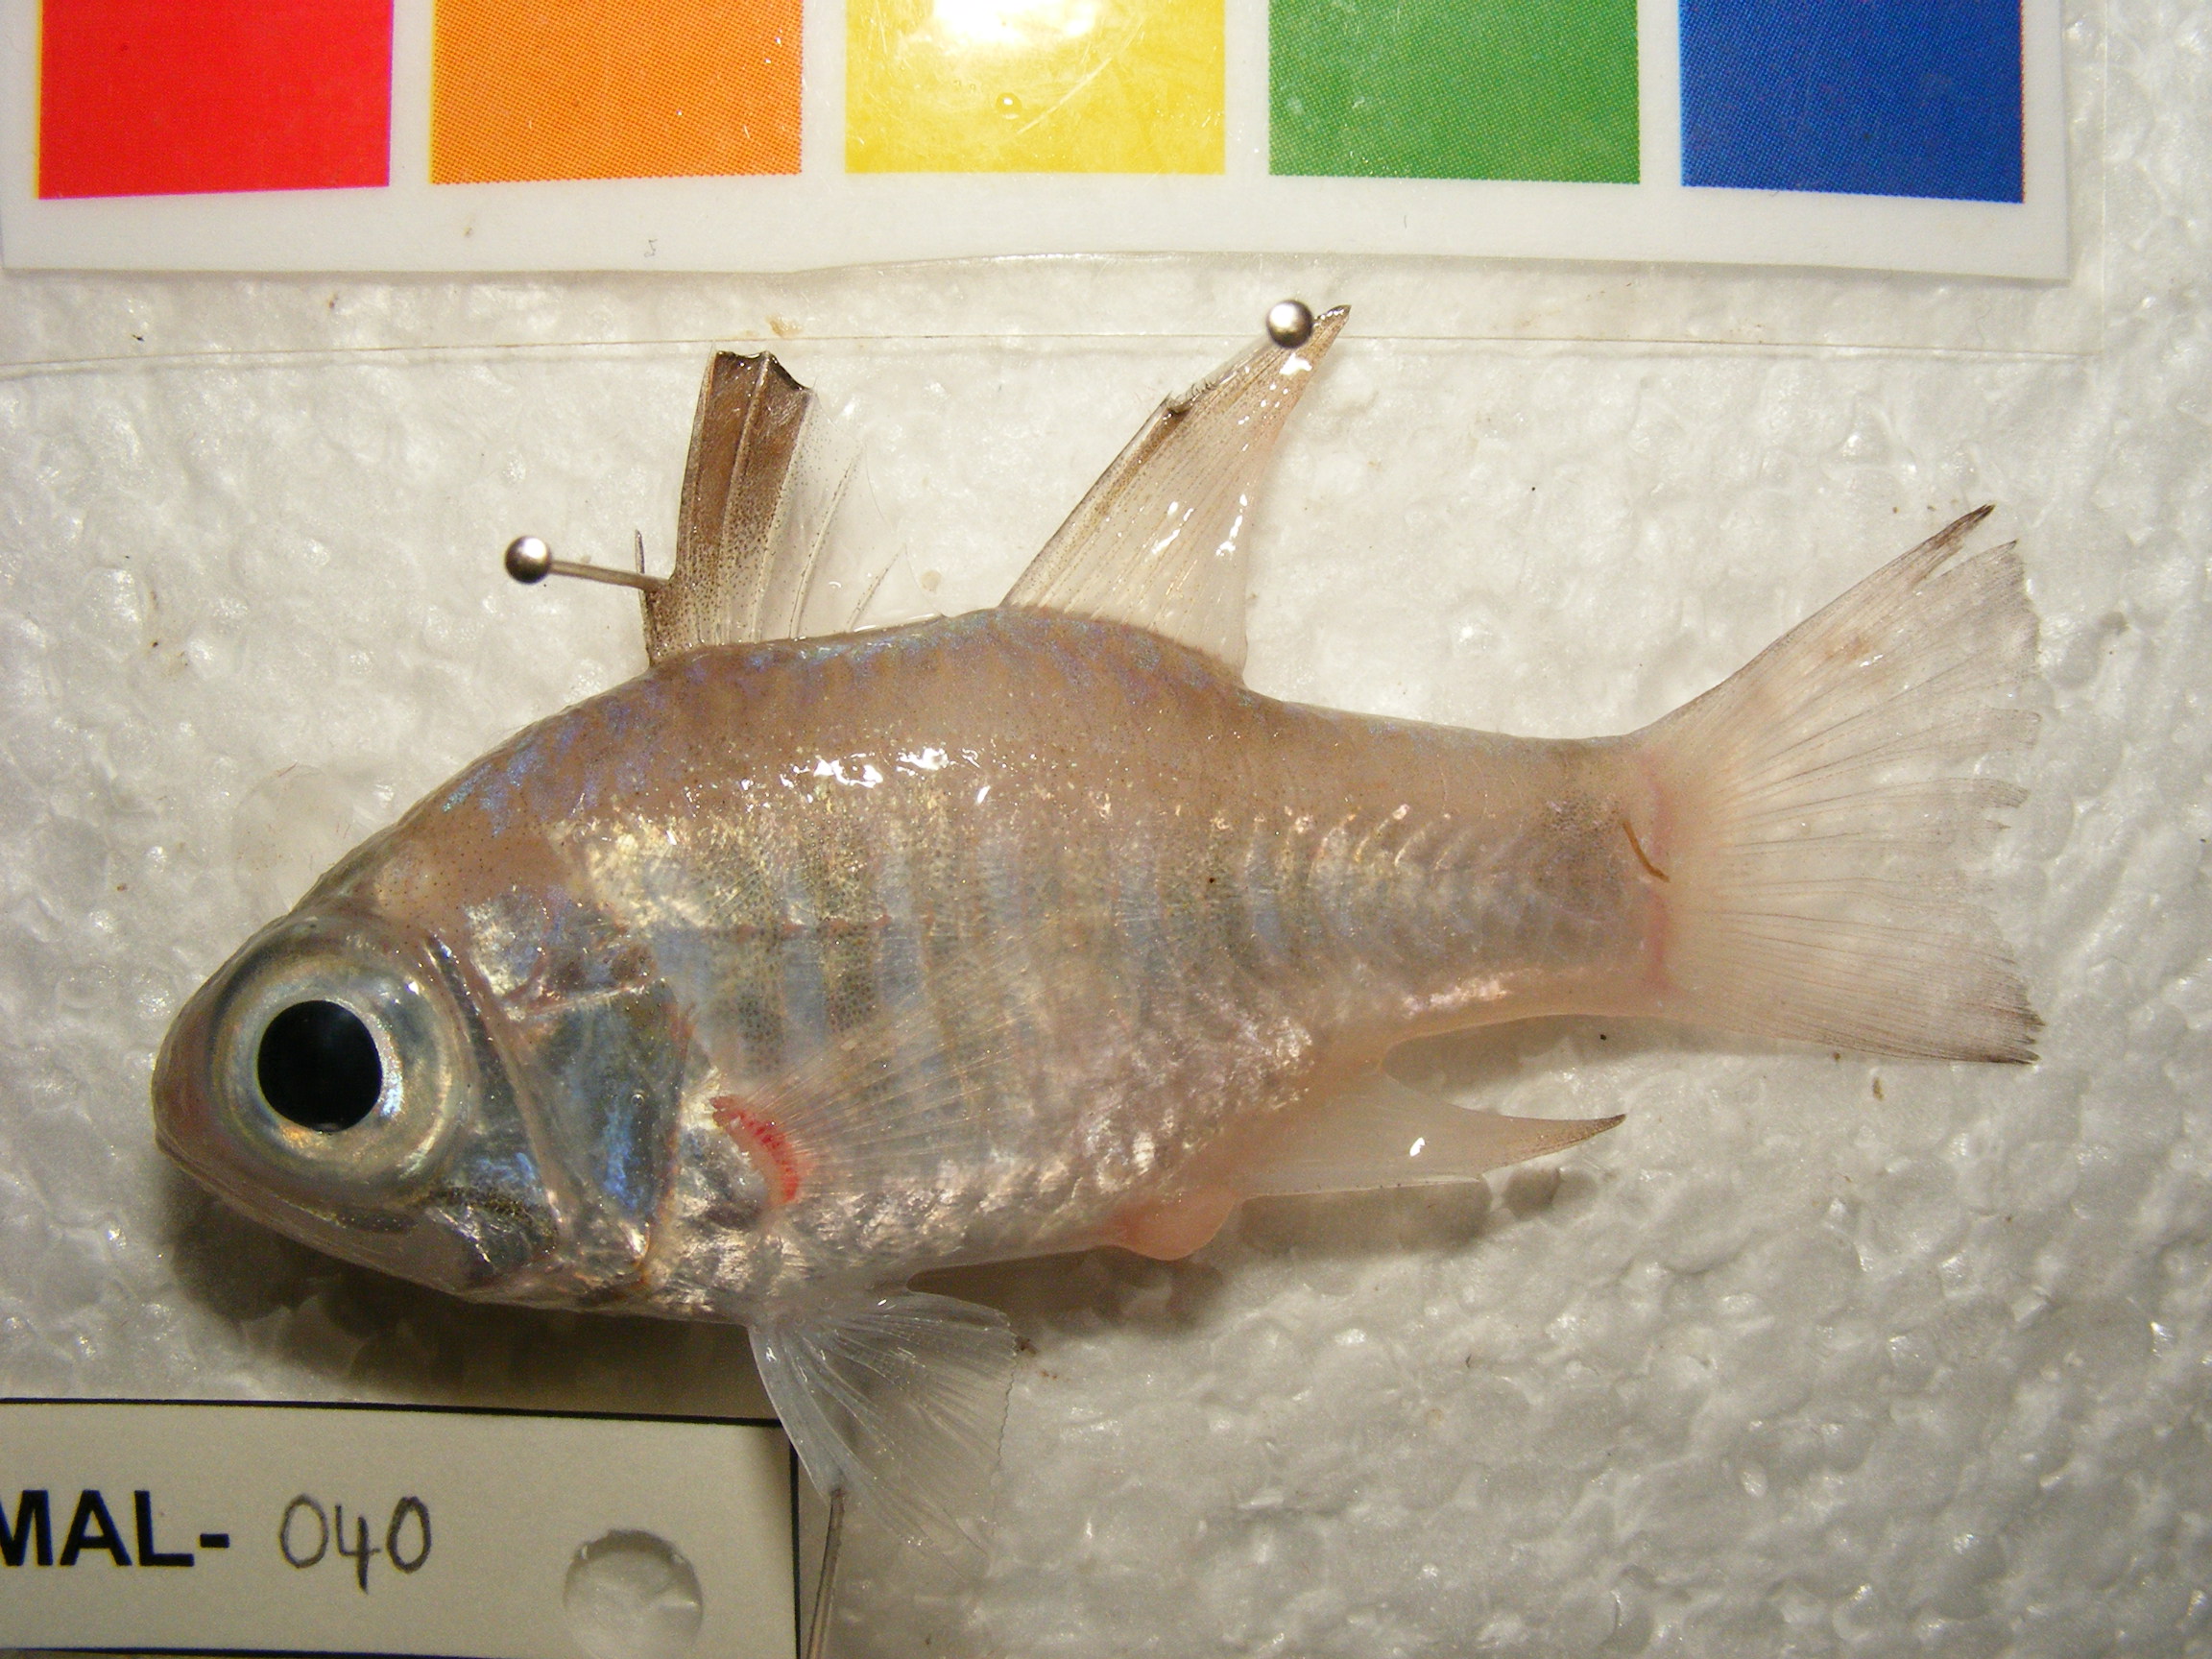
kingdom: Animalia
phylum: Chordata
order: Perciformes
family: Apogonidae
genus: Nectamia
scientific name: Nectamia luxuria
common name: Multi-barred cardinalfish
